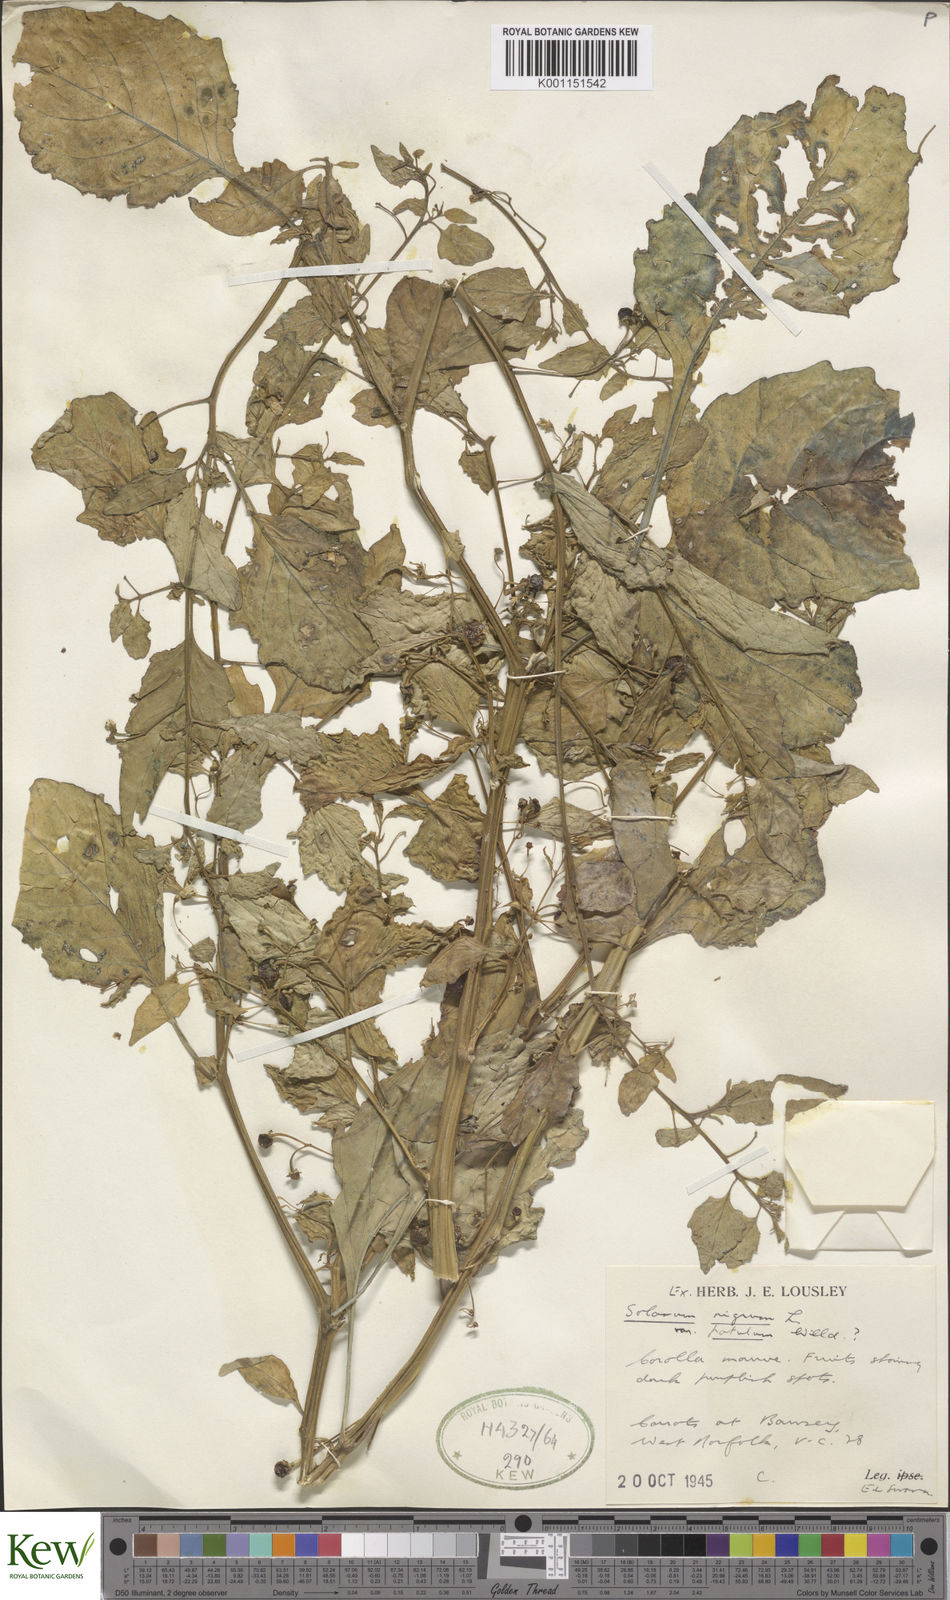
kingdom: Plantae
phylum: Tracheophyta
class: Magnoliopsida
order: Solanales
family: Solanaceae
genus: Solanum
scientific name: Solanum americanum
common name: American black nightshade
